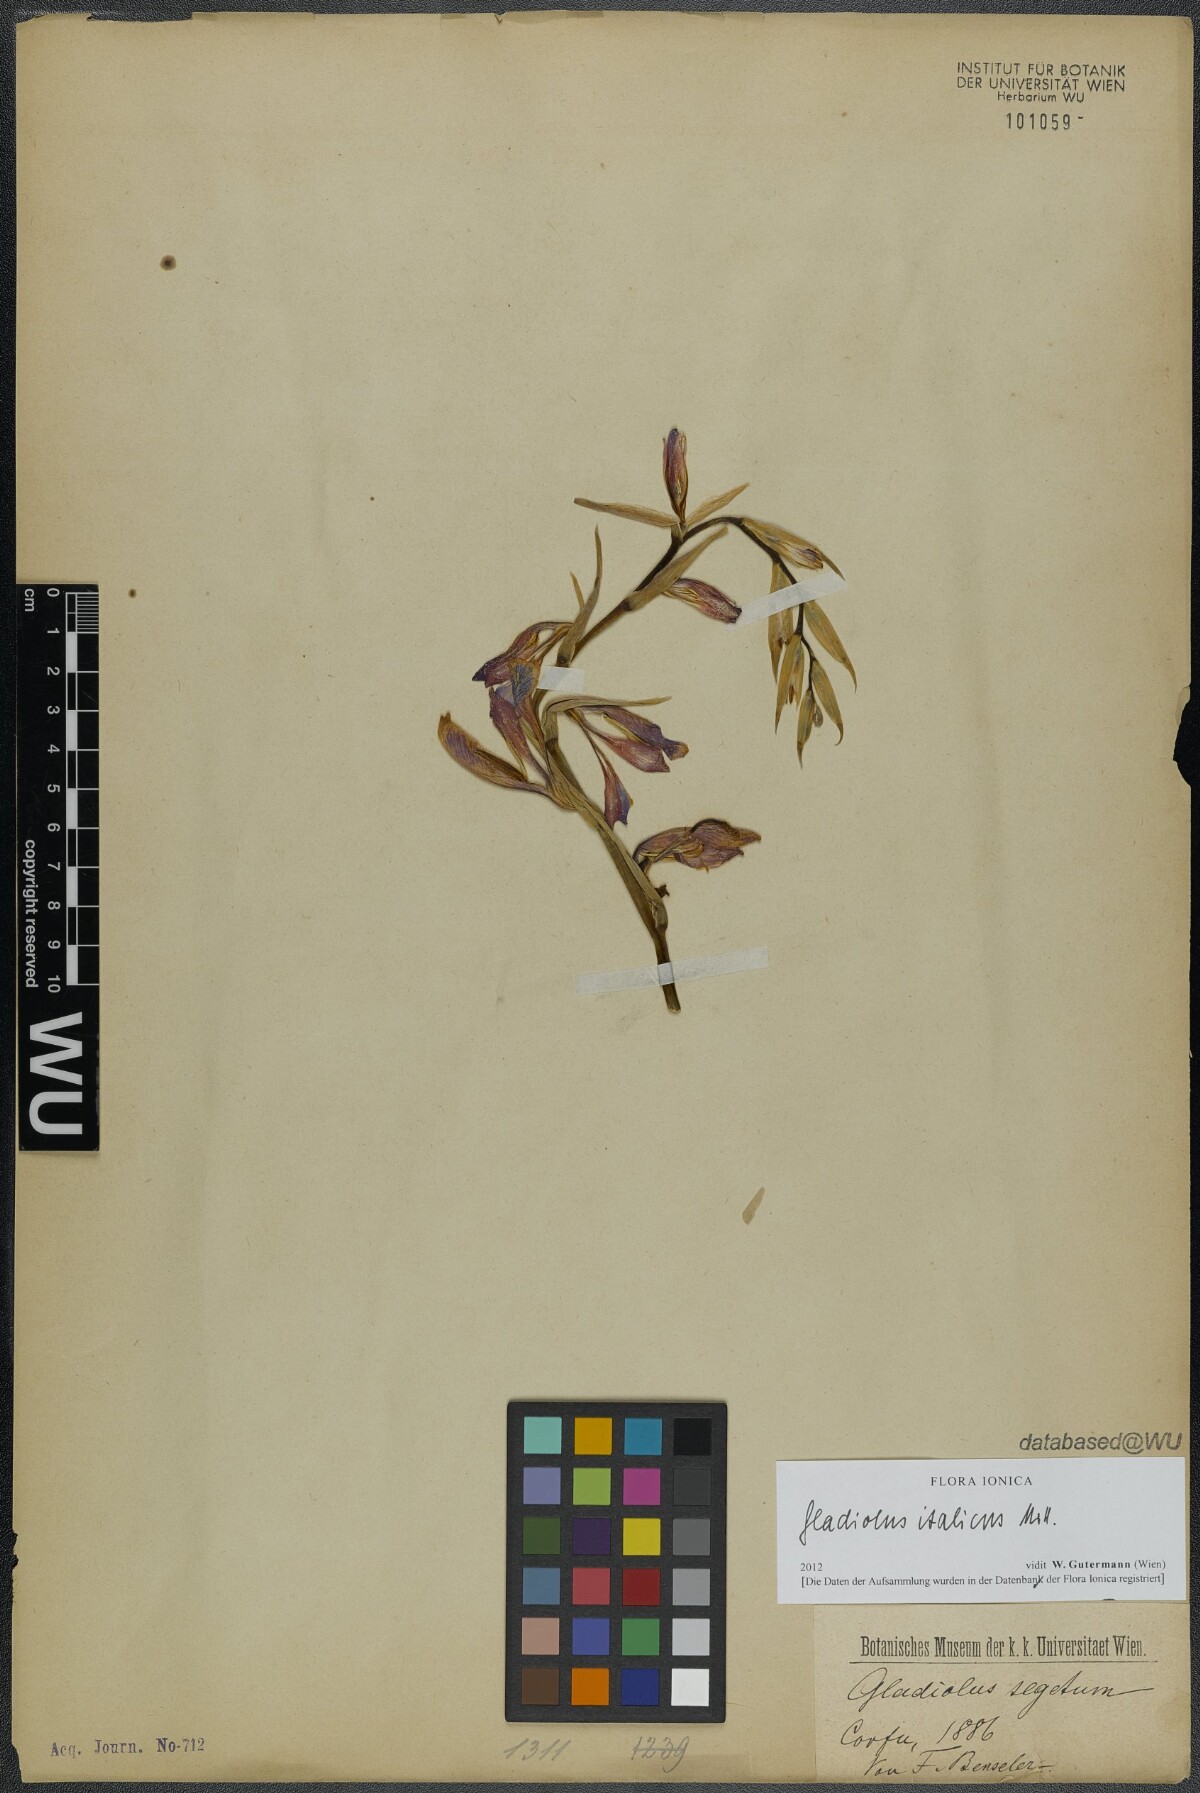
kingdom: Plantae
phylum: Tracheophyta
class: Liliopsida
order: Asparagales
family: Iridaceae
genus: Gladiolus
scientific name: Gladiolus italicus
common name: Field gladiolus
